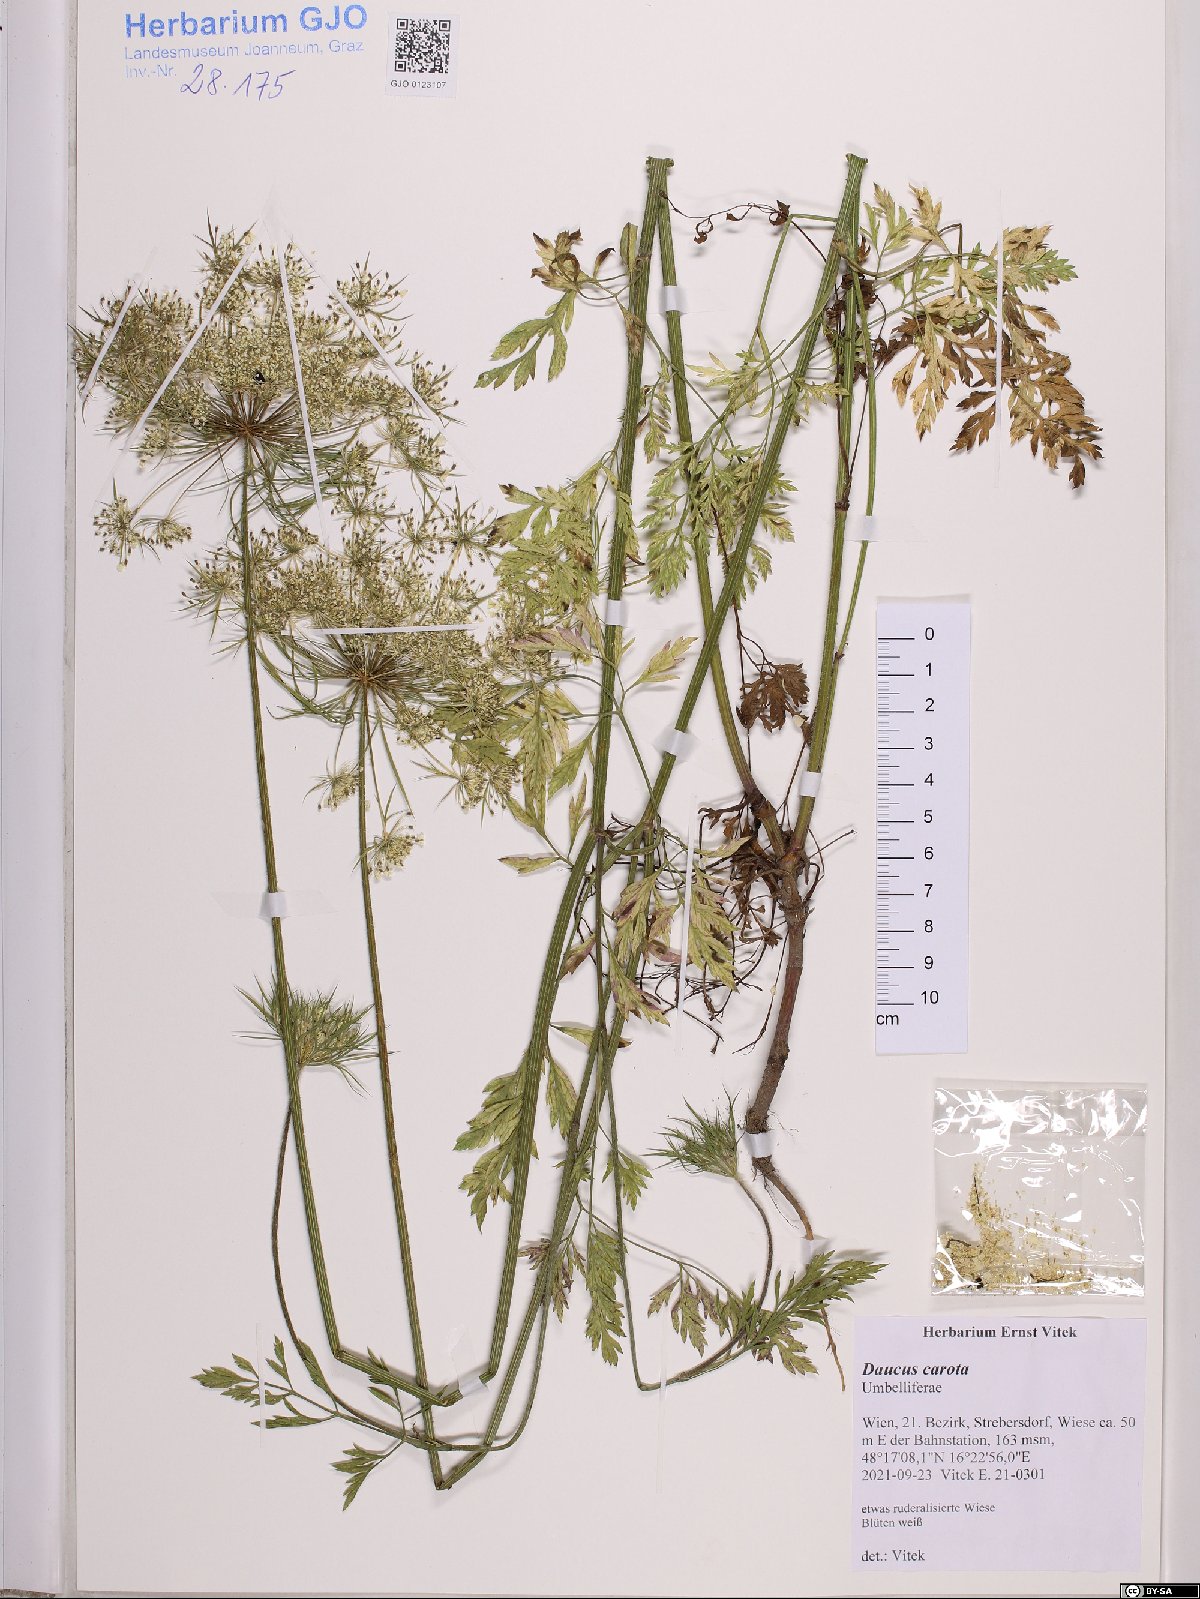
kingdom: Plantae
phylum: Tracheophyta
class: Magnoliopsida
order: Apiales
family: Apiaceae
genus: Daucus
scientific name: Daucus carota
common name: Wild carrot
